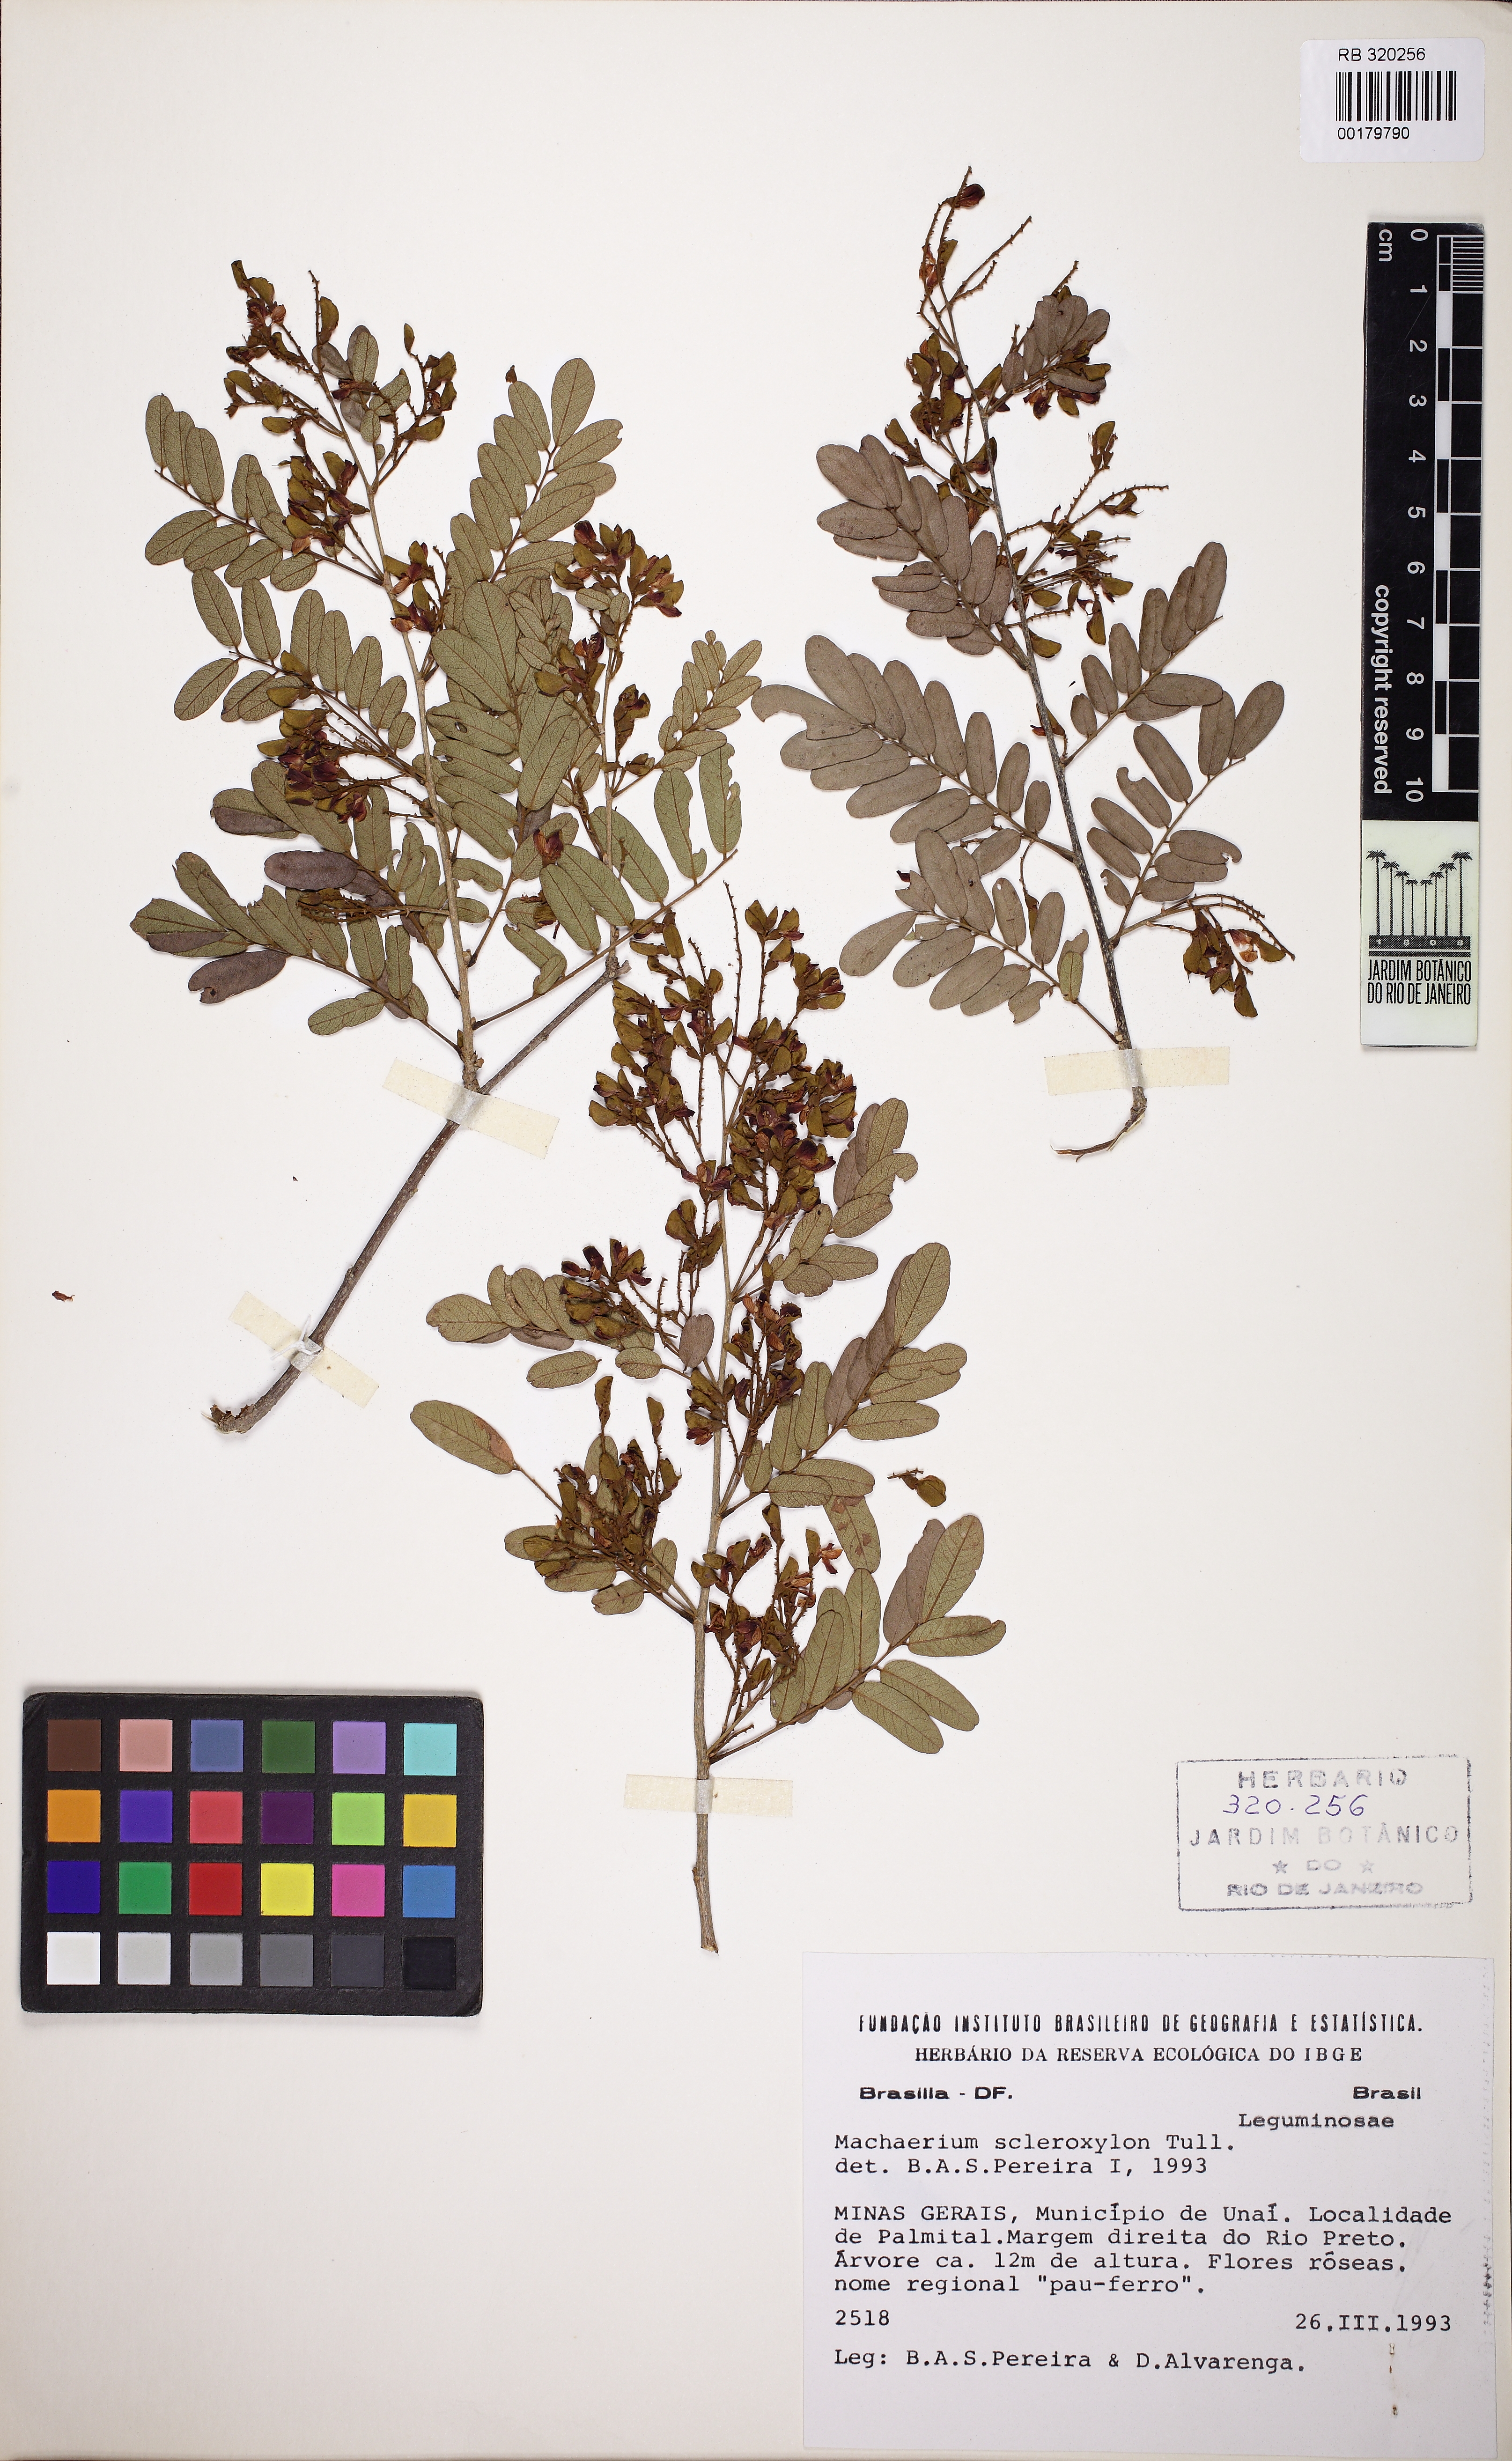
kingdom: Plantae
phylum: Tracheophyta
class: Magnoliopsida
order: Fabales
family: Fabaceae
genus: Machaerium
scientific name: Machaerium scleroxylon
